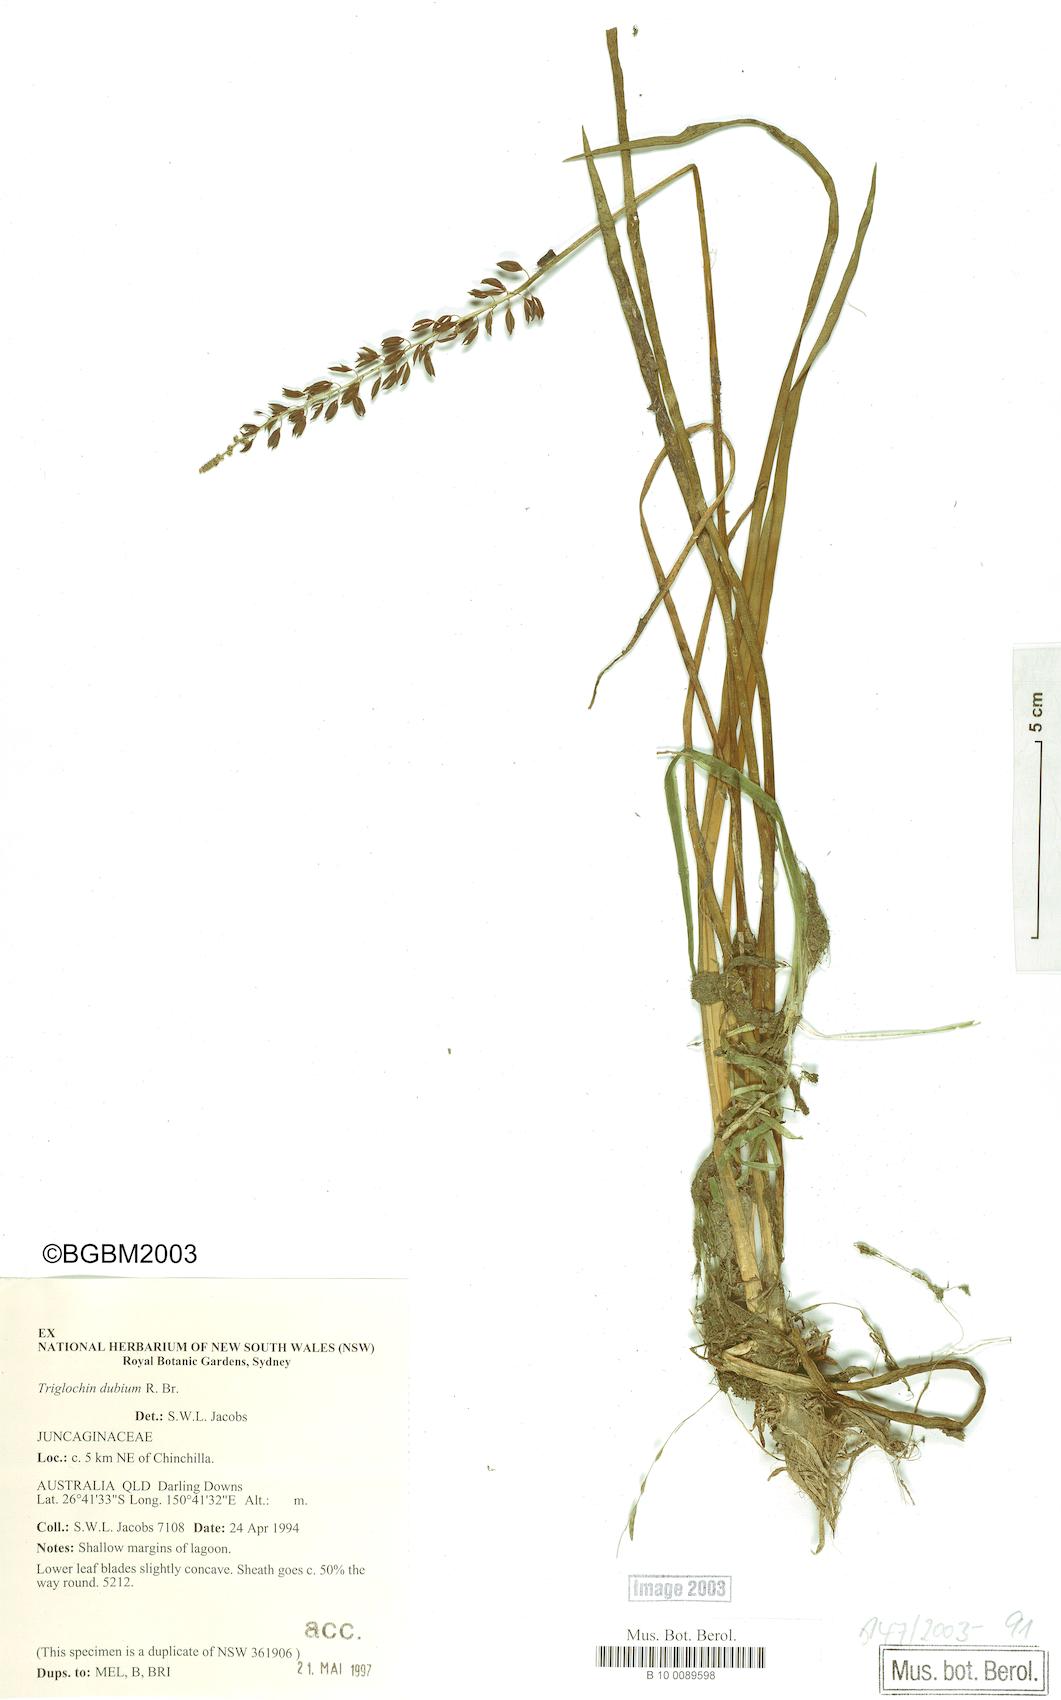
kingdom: Plantae
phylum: Tracheophyta
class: Liliopsida
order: Alismatales
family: Juncaginaceae
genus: Cycnogeton
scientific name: Cycnogeton dubium
